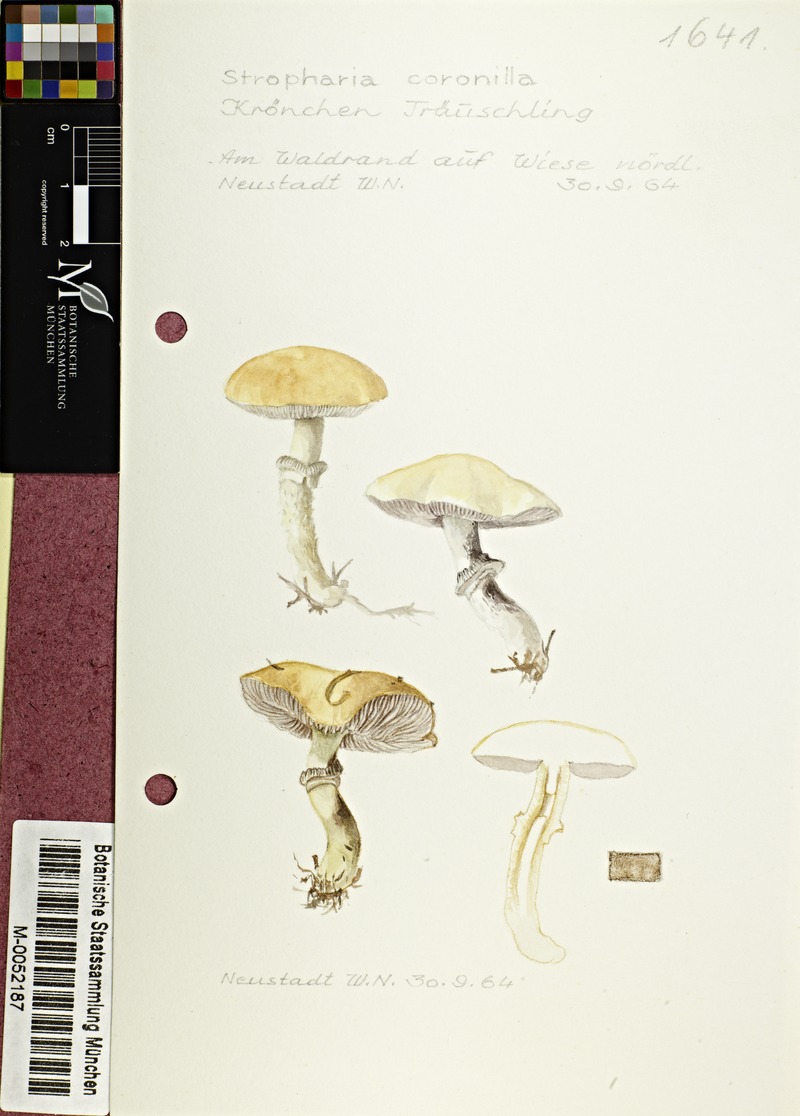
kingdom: Fungi
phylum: Basidiomycota
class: Agaricomycetes
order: Agaricales
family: Hymenogastraceae
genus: Psilocybe
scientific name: Psilocybe coronilla
